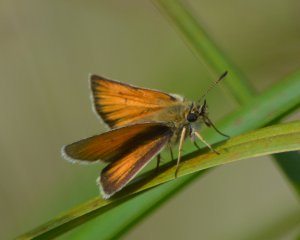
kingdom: Animalia
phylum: Arthropoda
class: Insecta
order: Lepidoptera
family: Hesperiidae
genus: Thymelicus
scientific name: Thymelicus lineola
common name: European Skipper
